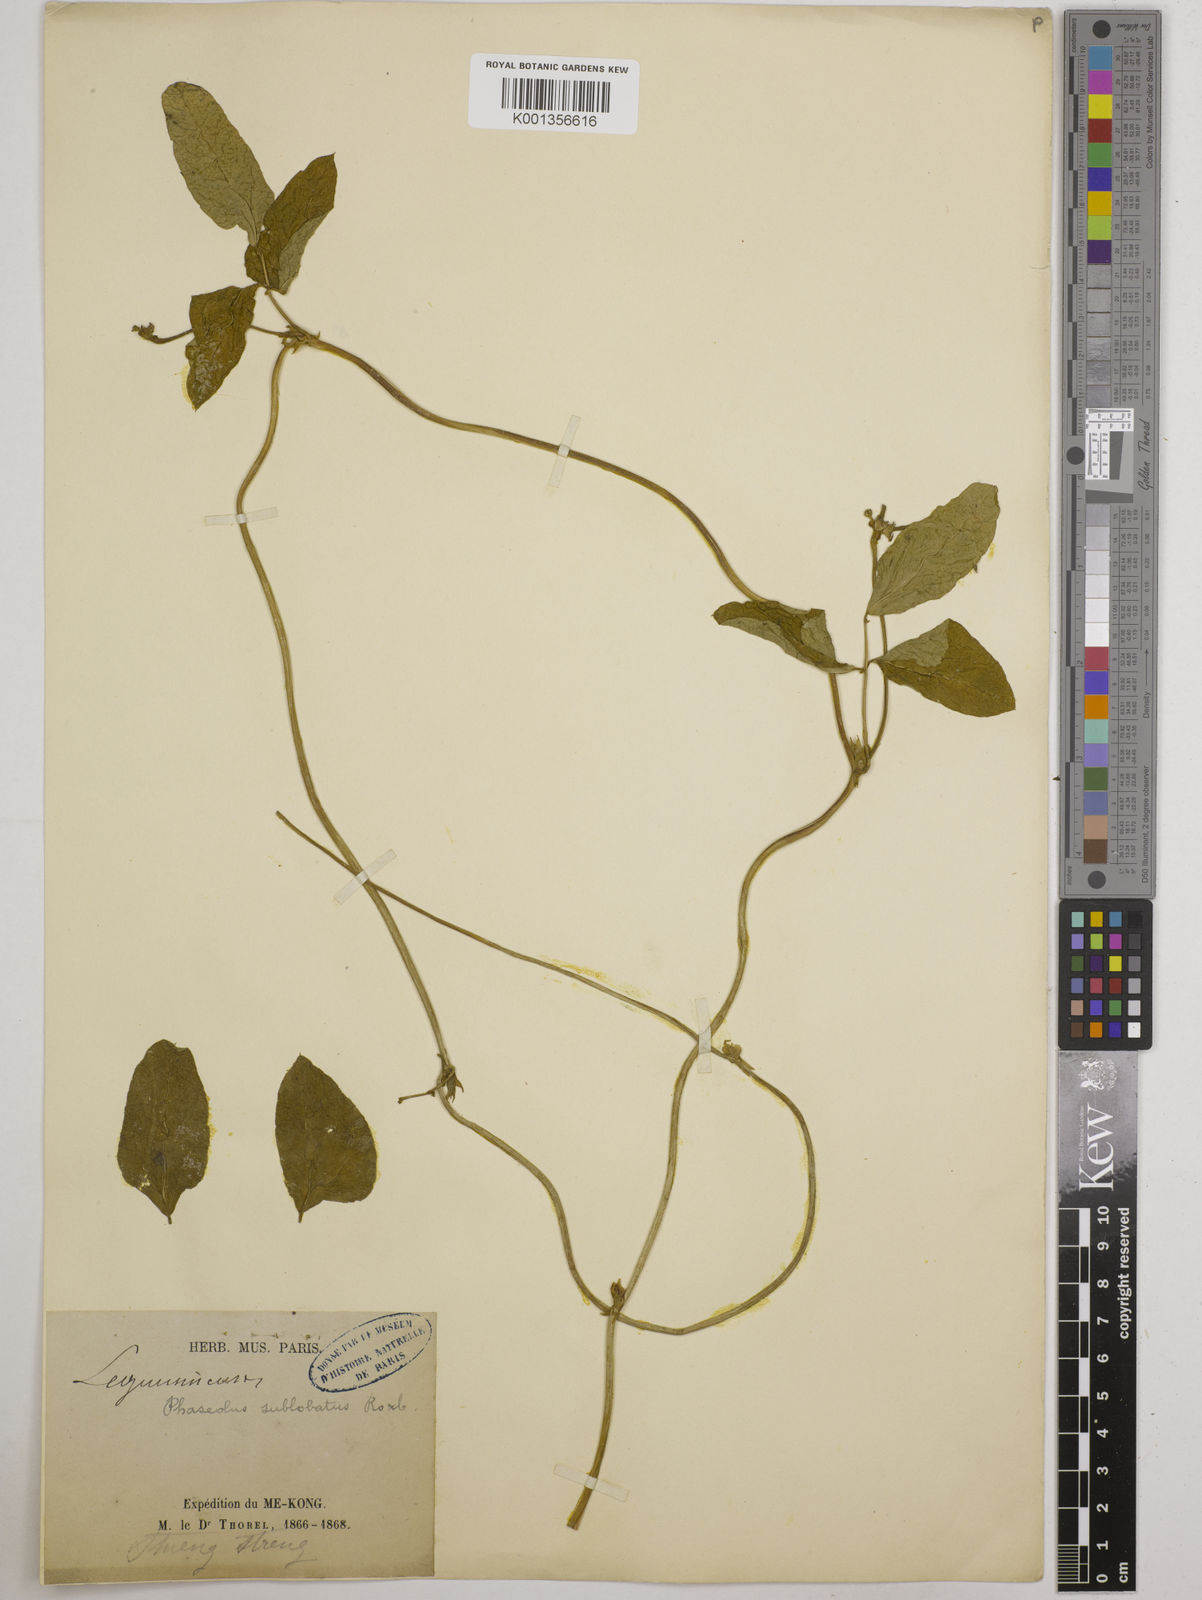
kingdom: Plantae
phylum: Tracheophyta
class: Magnoliopsida
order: Fabales
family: Fabaceae
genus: Vigna
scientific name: Vigna radiata
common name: Mung-bean
